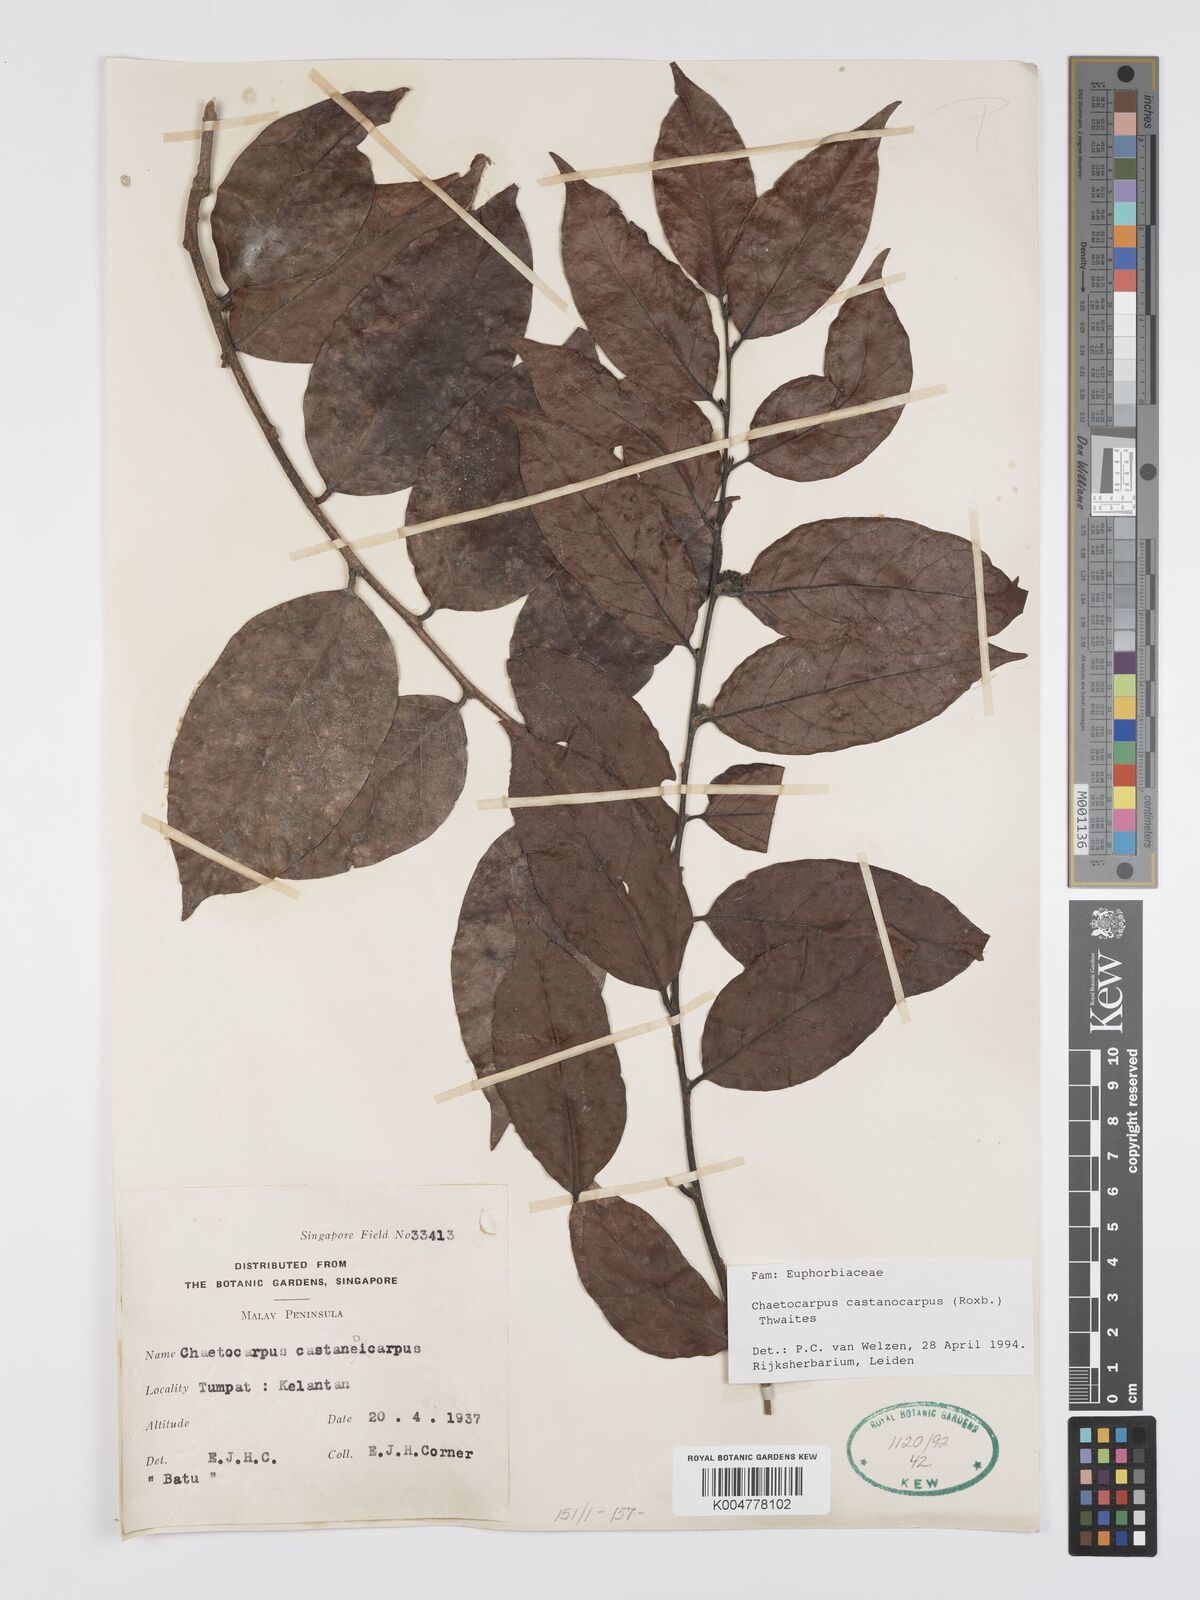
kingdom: Plantae
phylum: Tracheophyta
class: Magnoliopsida
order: Malpighiales
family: Peraceae
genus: Chaetocarpus
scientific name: Chaetocarpus castanocarpus
